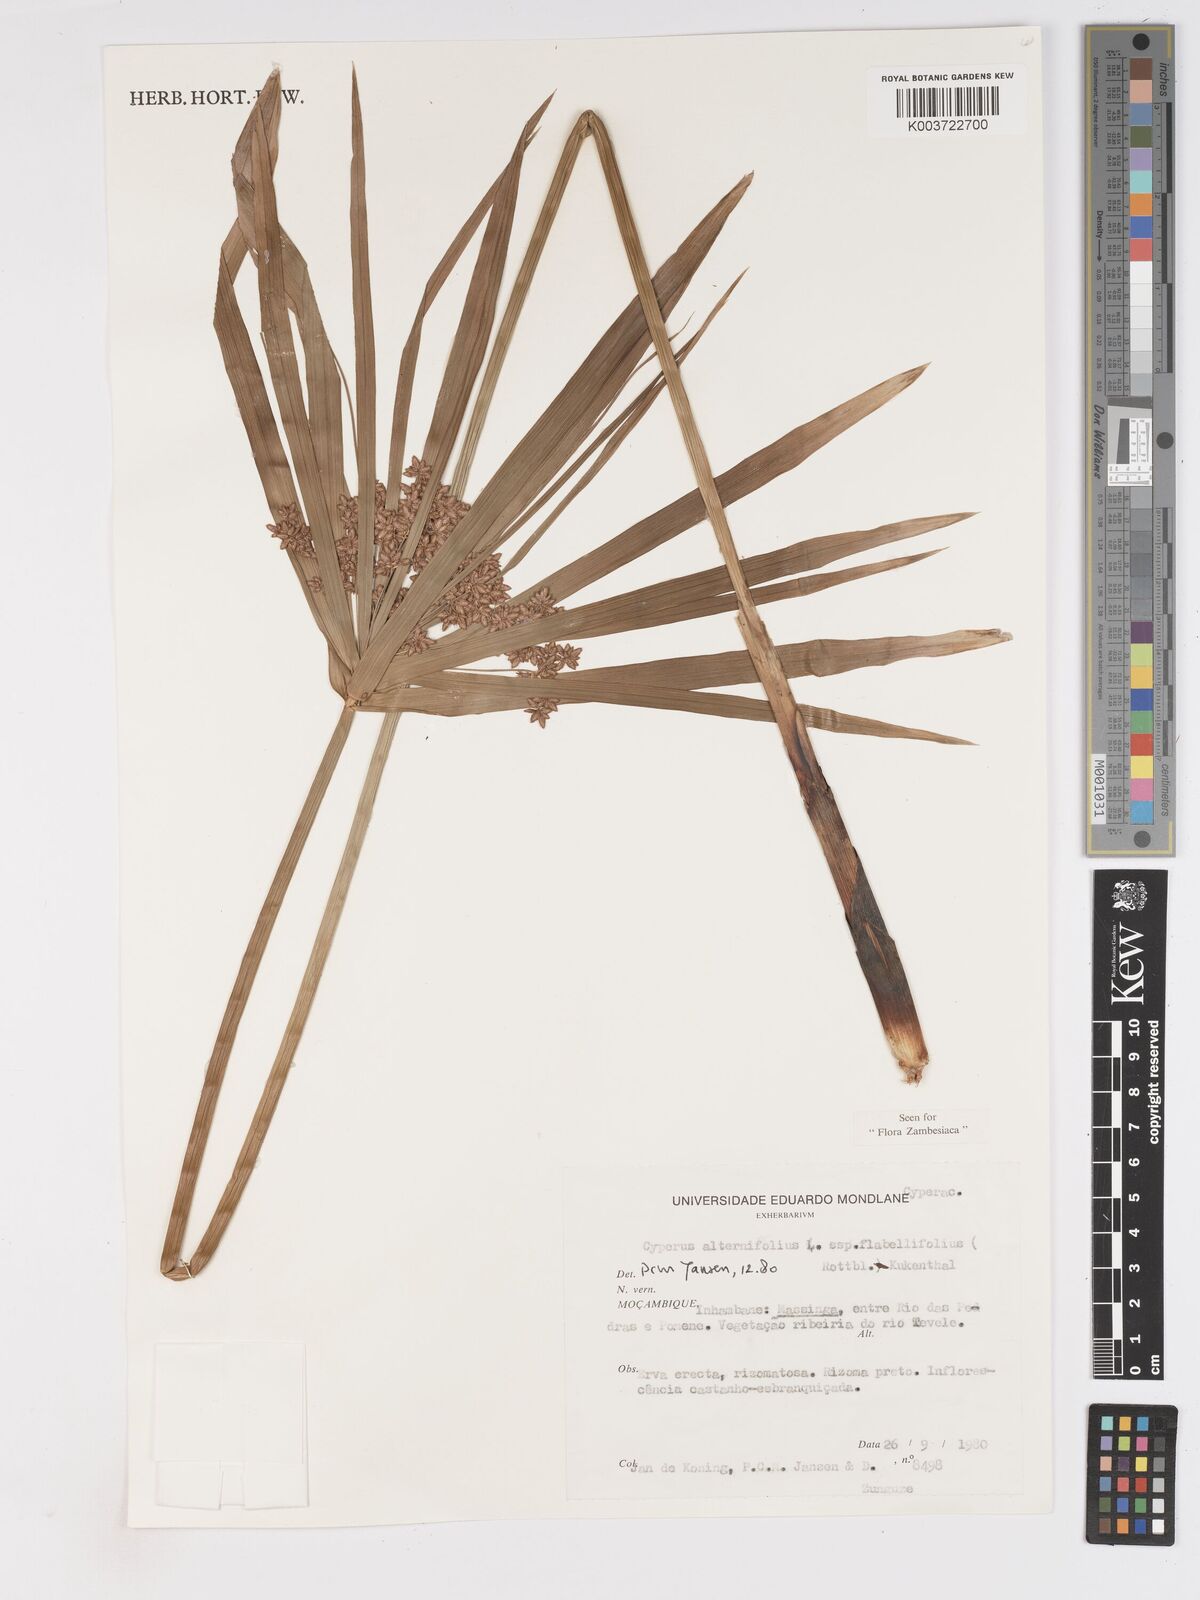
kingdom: Plantae
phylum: Tracheophyta
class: Liliopsida
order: Poales
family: Cyperaceae
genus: Cyperus
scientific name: Cyperus alternifolius
